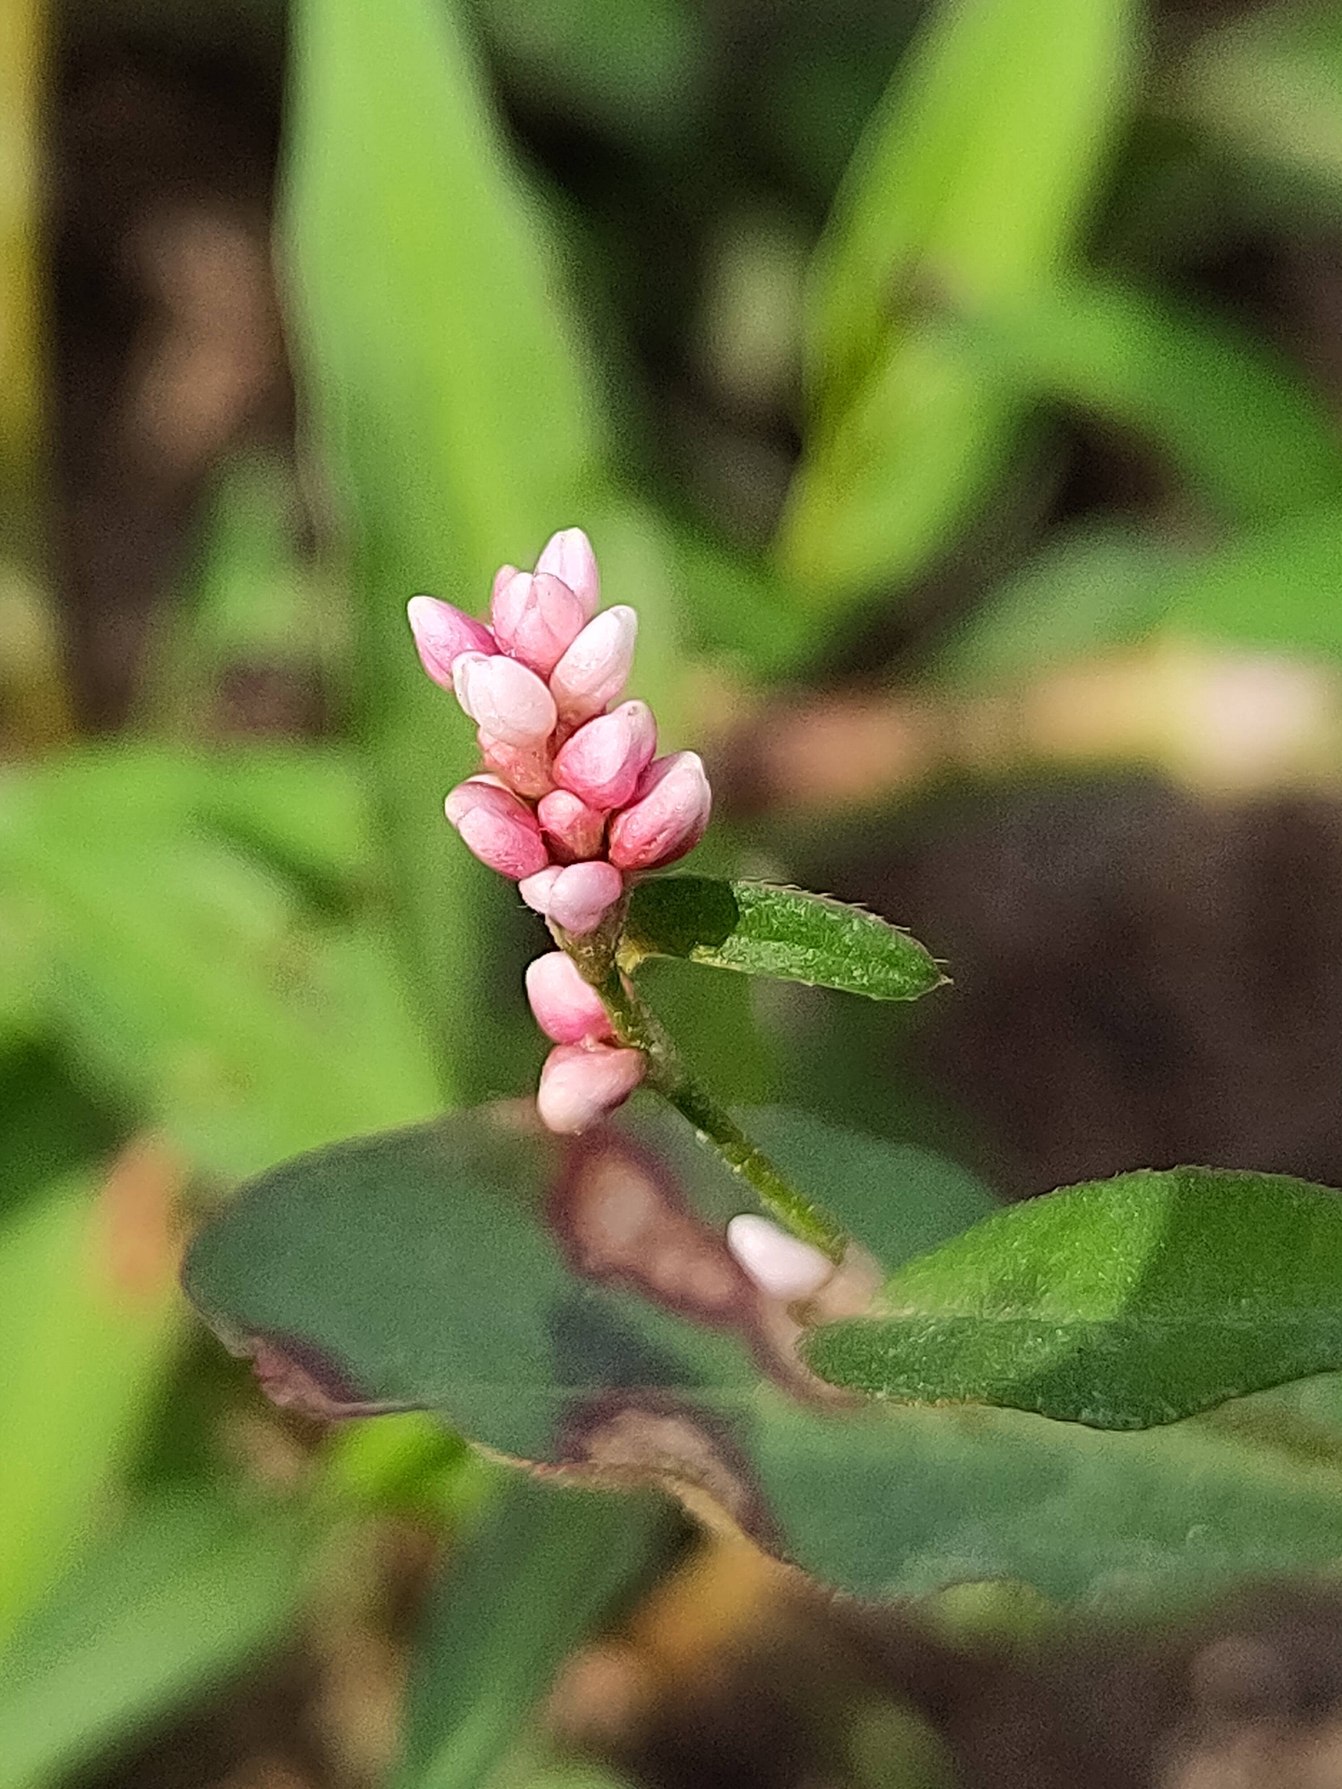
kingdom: Plantae
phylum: Tracheophyta
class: Magnoliopsida
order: Caryophyllales
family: Polygonaceae
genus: Persicaria
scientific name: Persicaria maculosa
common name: Fersken-pileurt
